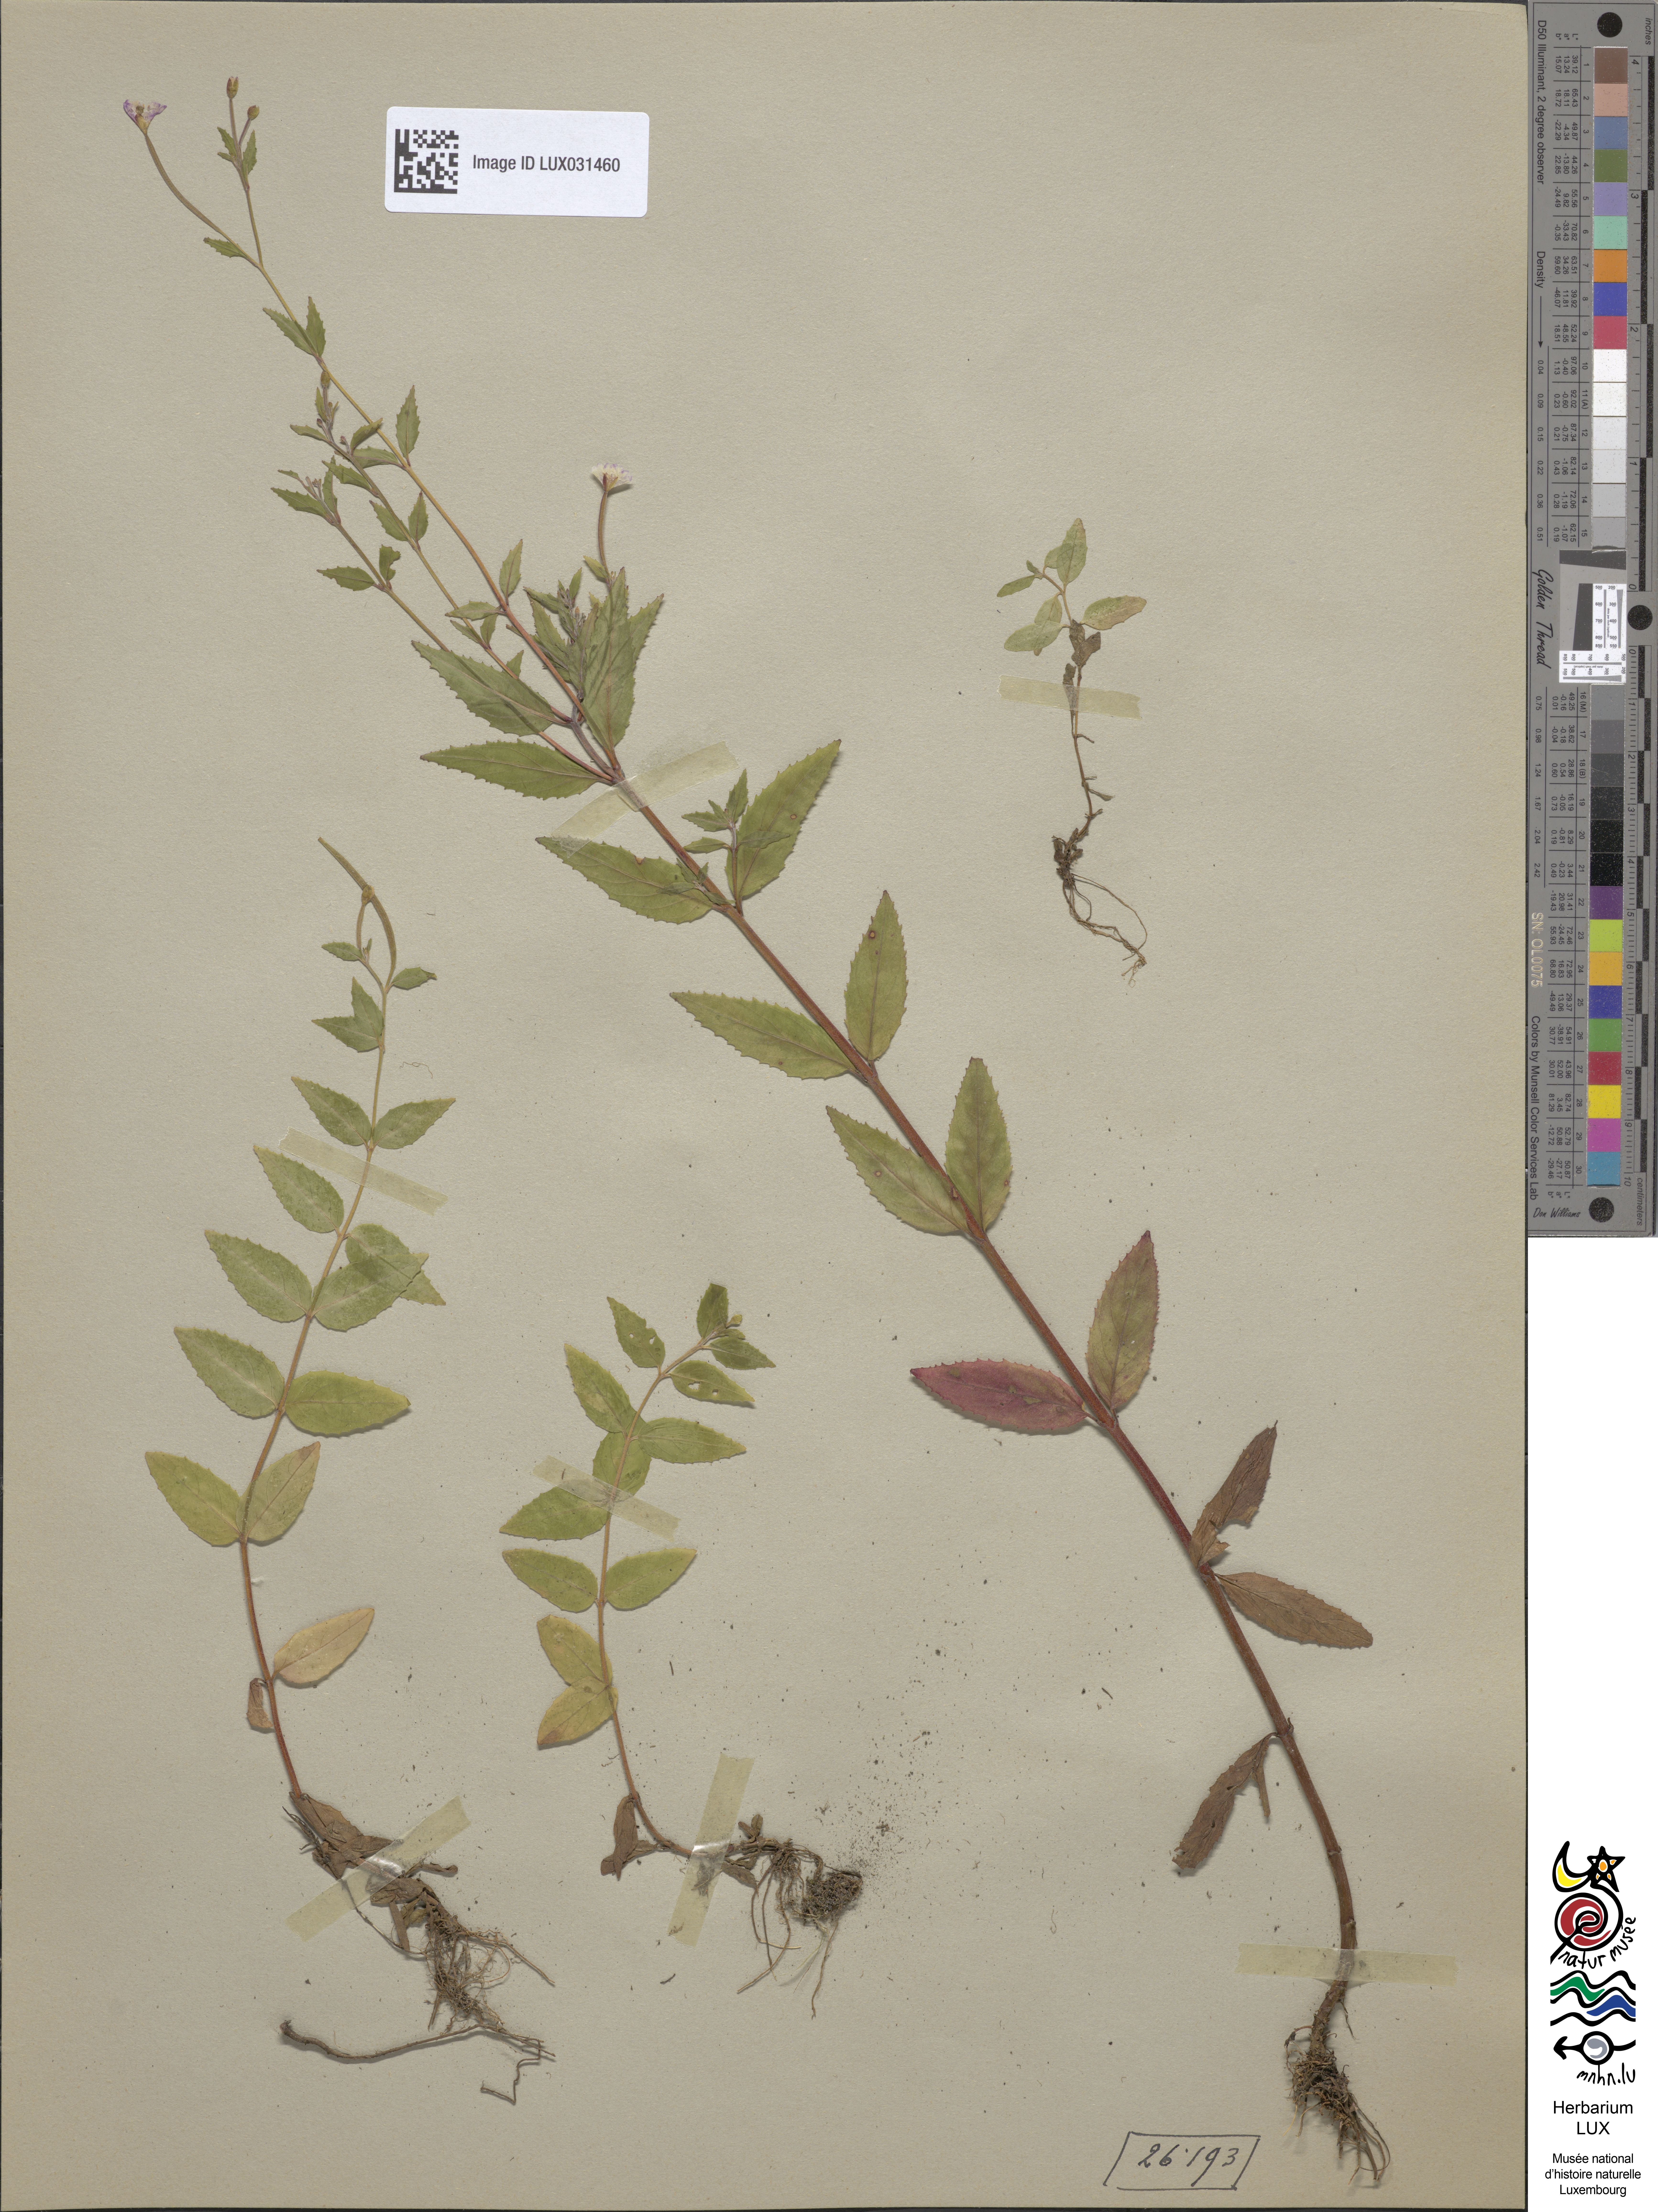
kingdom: Plantae
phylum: Tracheophyta
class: Magnoliopsida
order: Myrtales
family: Onagraceae
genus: Epilobium
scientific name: Epilobium montanum
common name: Broad-leaved willowherb
